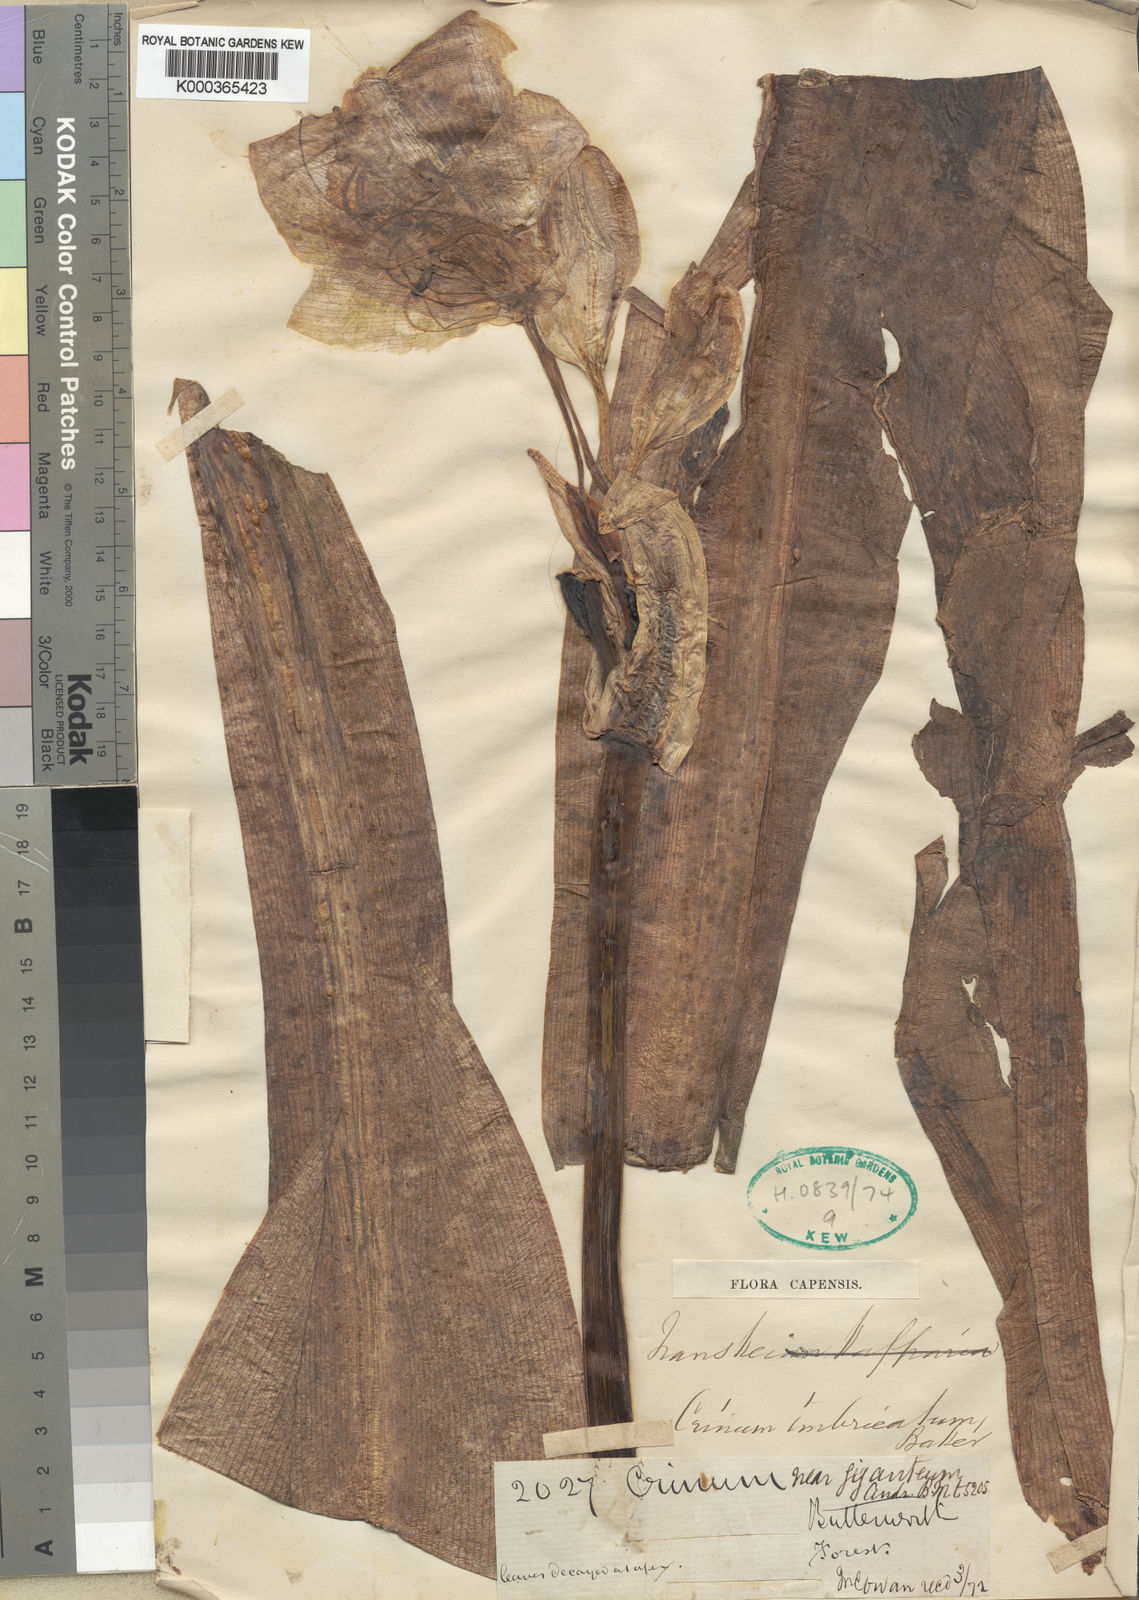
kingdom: Plantae
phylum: Tracheophyta
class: Liliopsida
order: Asparagales
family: Amaryllidaceae
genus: Crinum
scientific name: Crinum moorei
